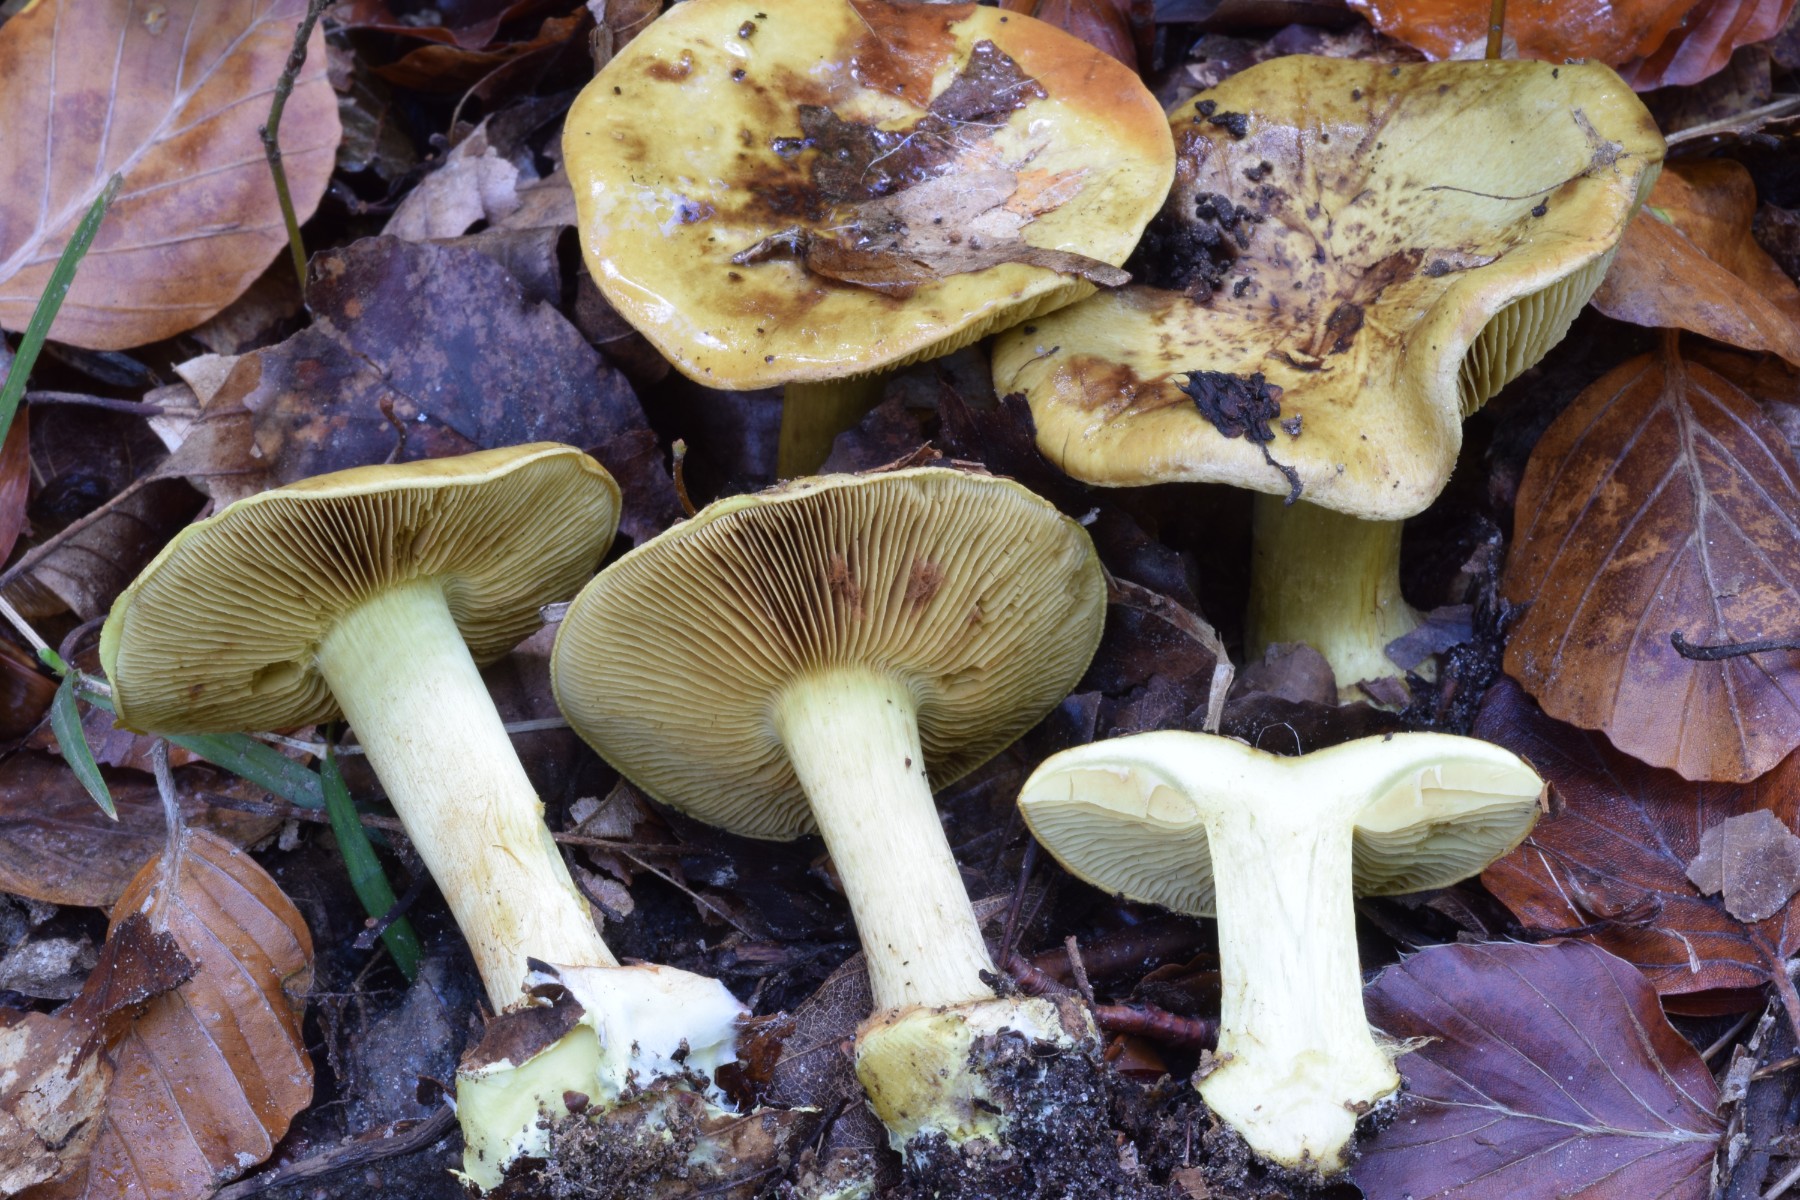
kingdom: Fungi
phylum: Basidiomycota
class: Agaricomycetes
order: Agaricales
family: Cortinariaceae
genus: Calonarius
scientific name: Calonarius citrinus
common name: citrongul slørhat
